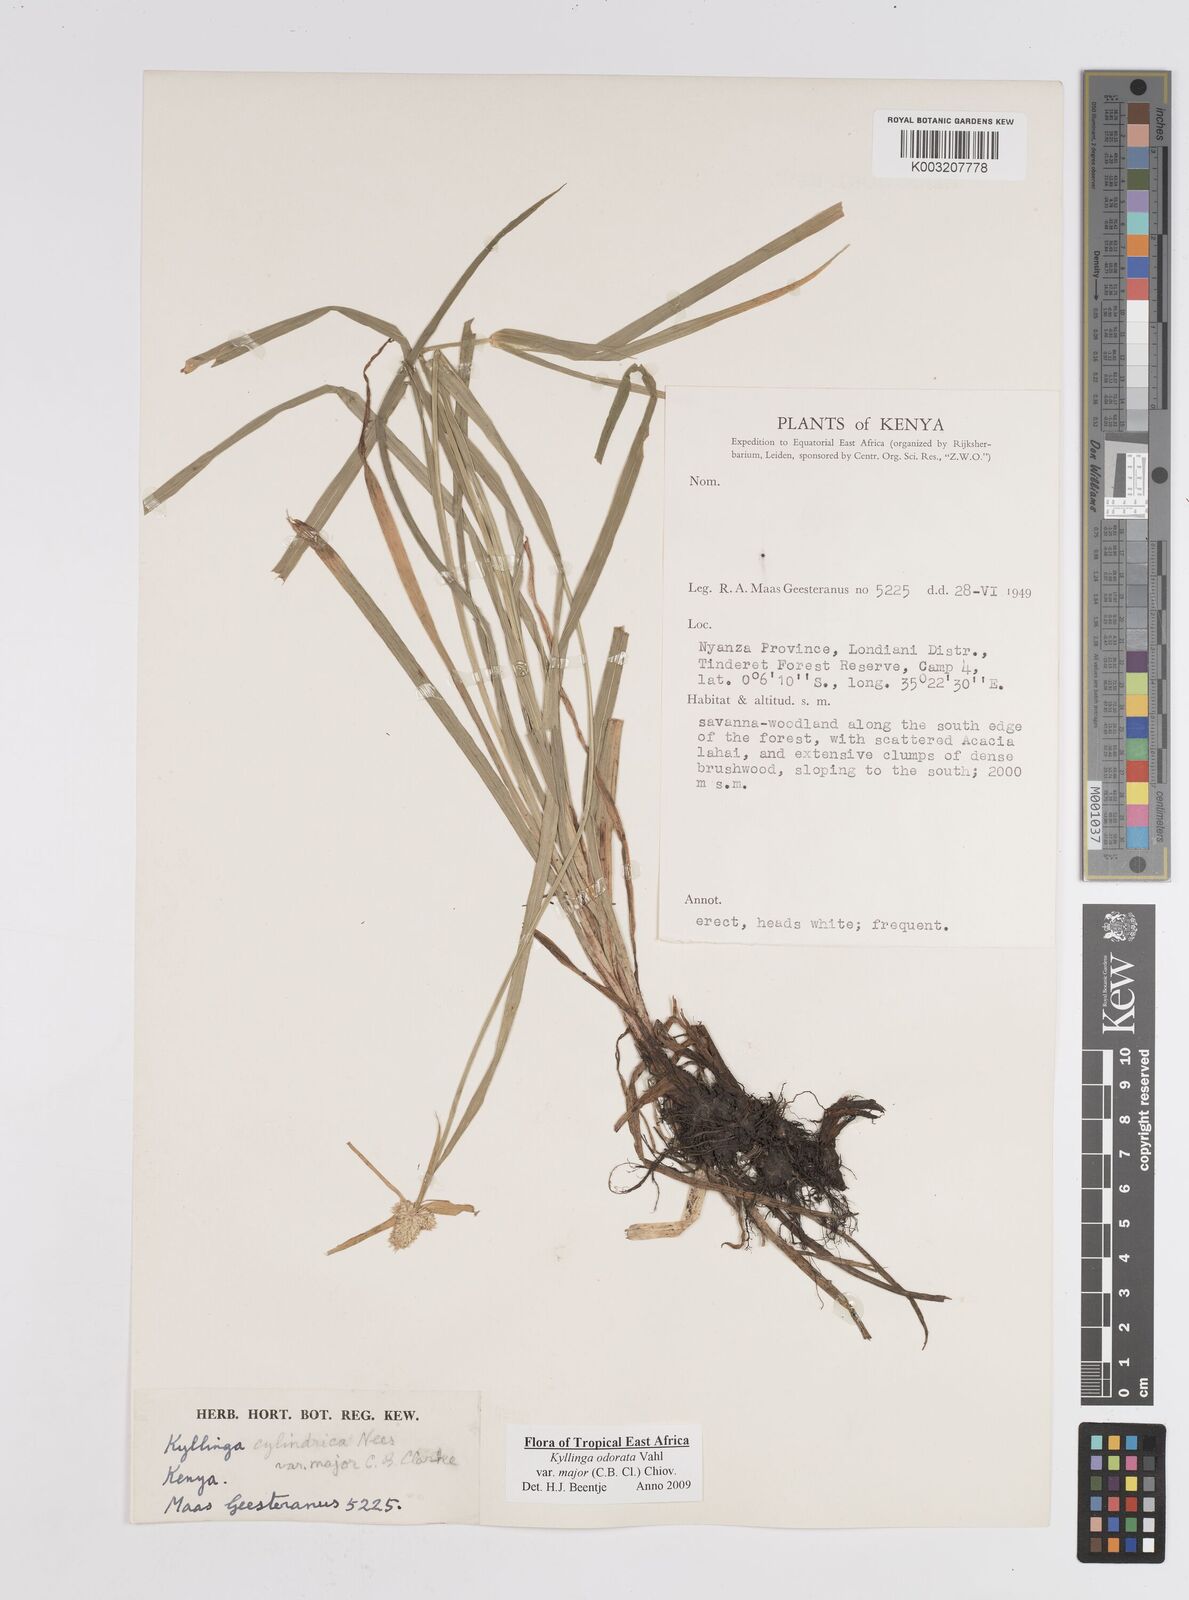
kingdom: Plantae
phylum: Tracheophyta
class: Liliopsida
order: Poales
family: Cyperaceae
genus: Cyperus
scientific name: Cyperus
